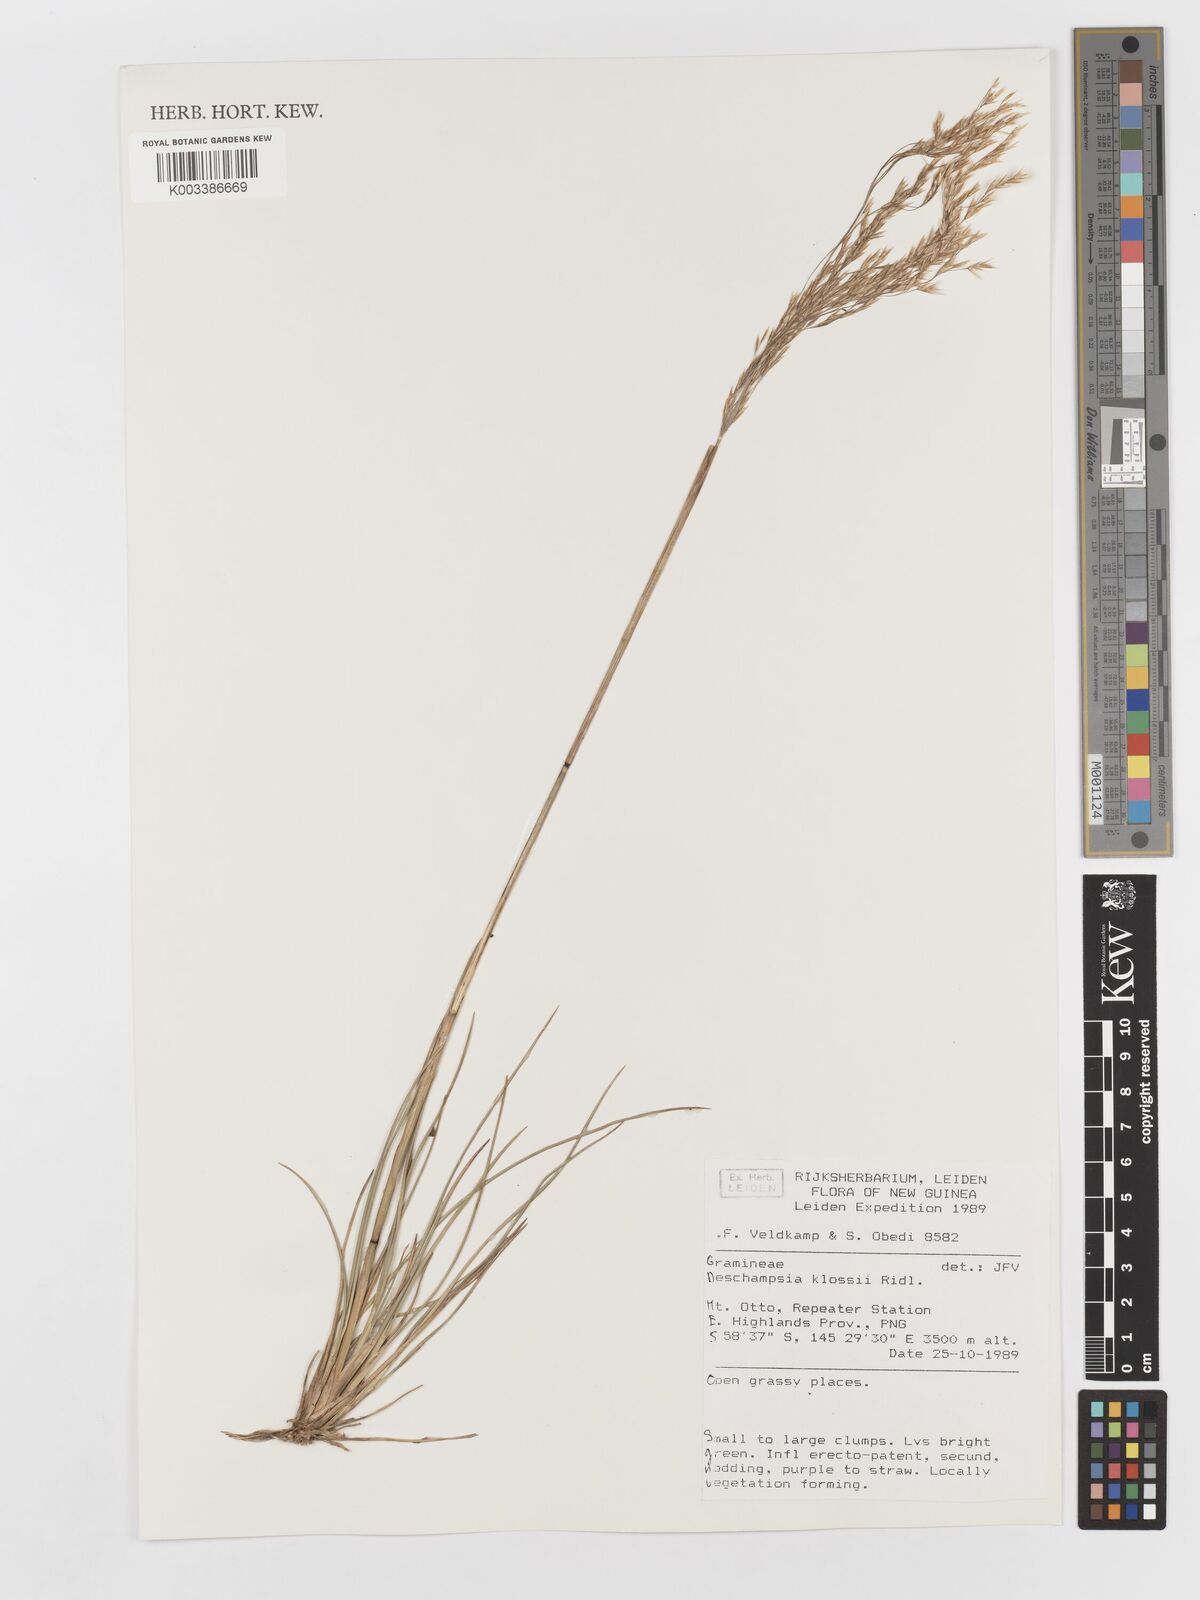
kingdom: Plantae
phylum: Tracheophyta
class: Liliopsida
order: Poales
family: Poaceae
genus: Deschampsia
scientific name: Deschampsia klossii
